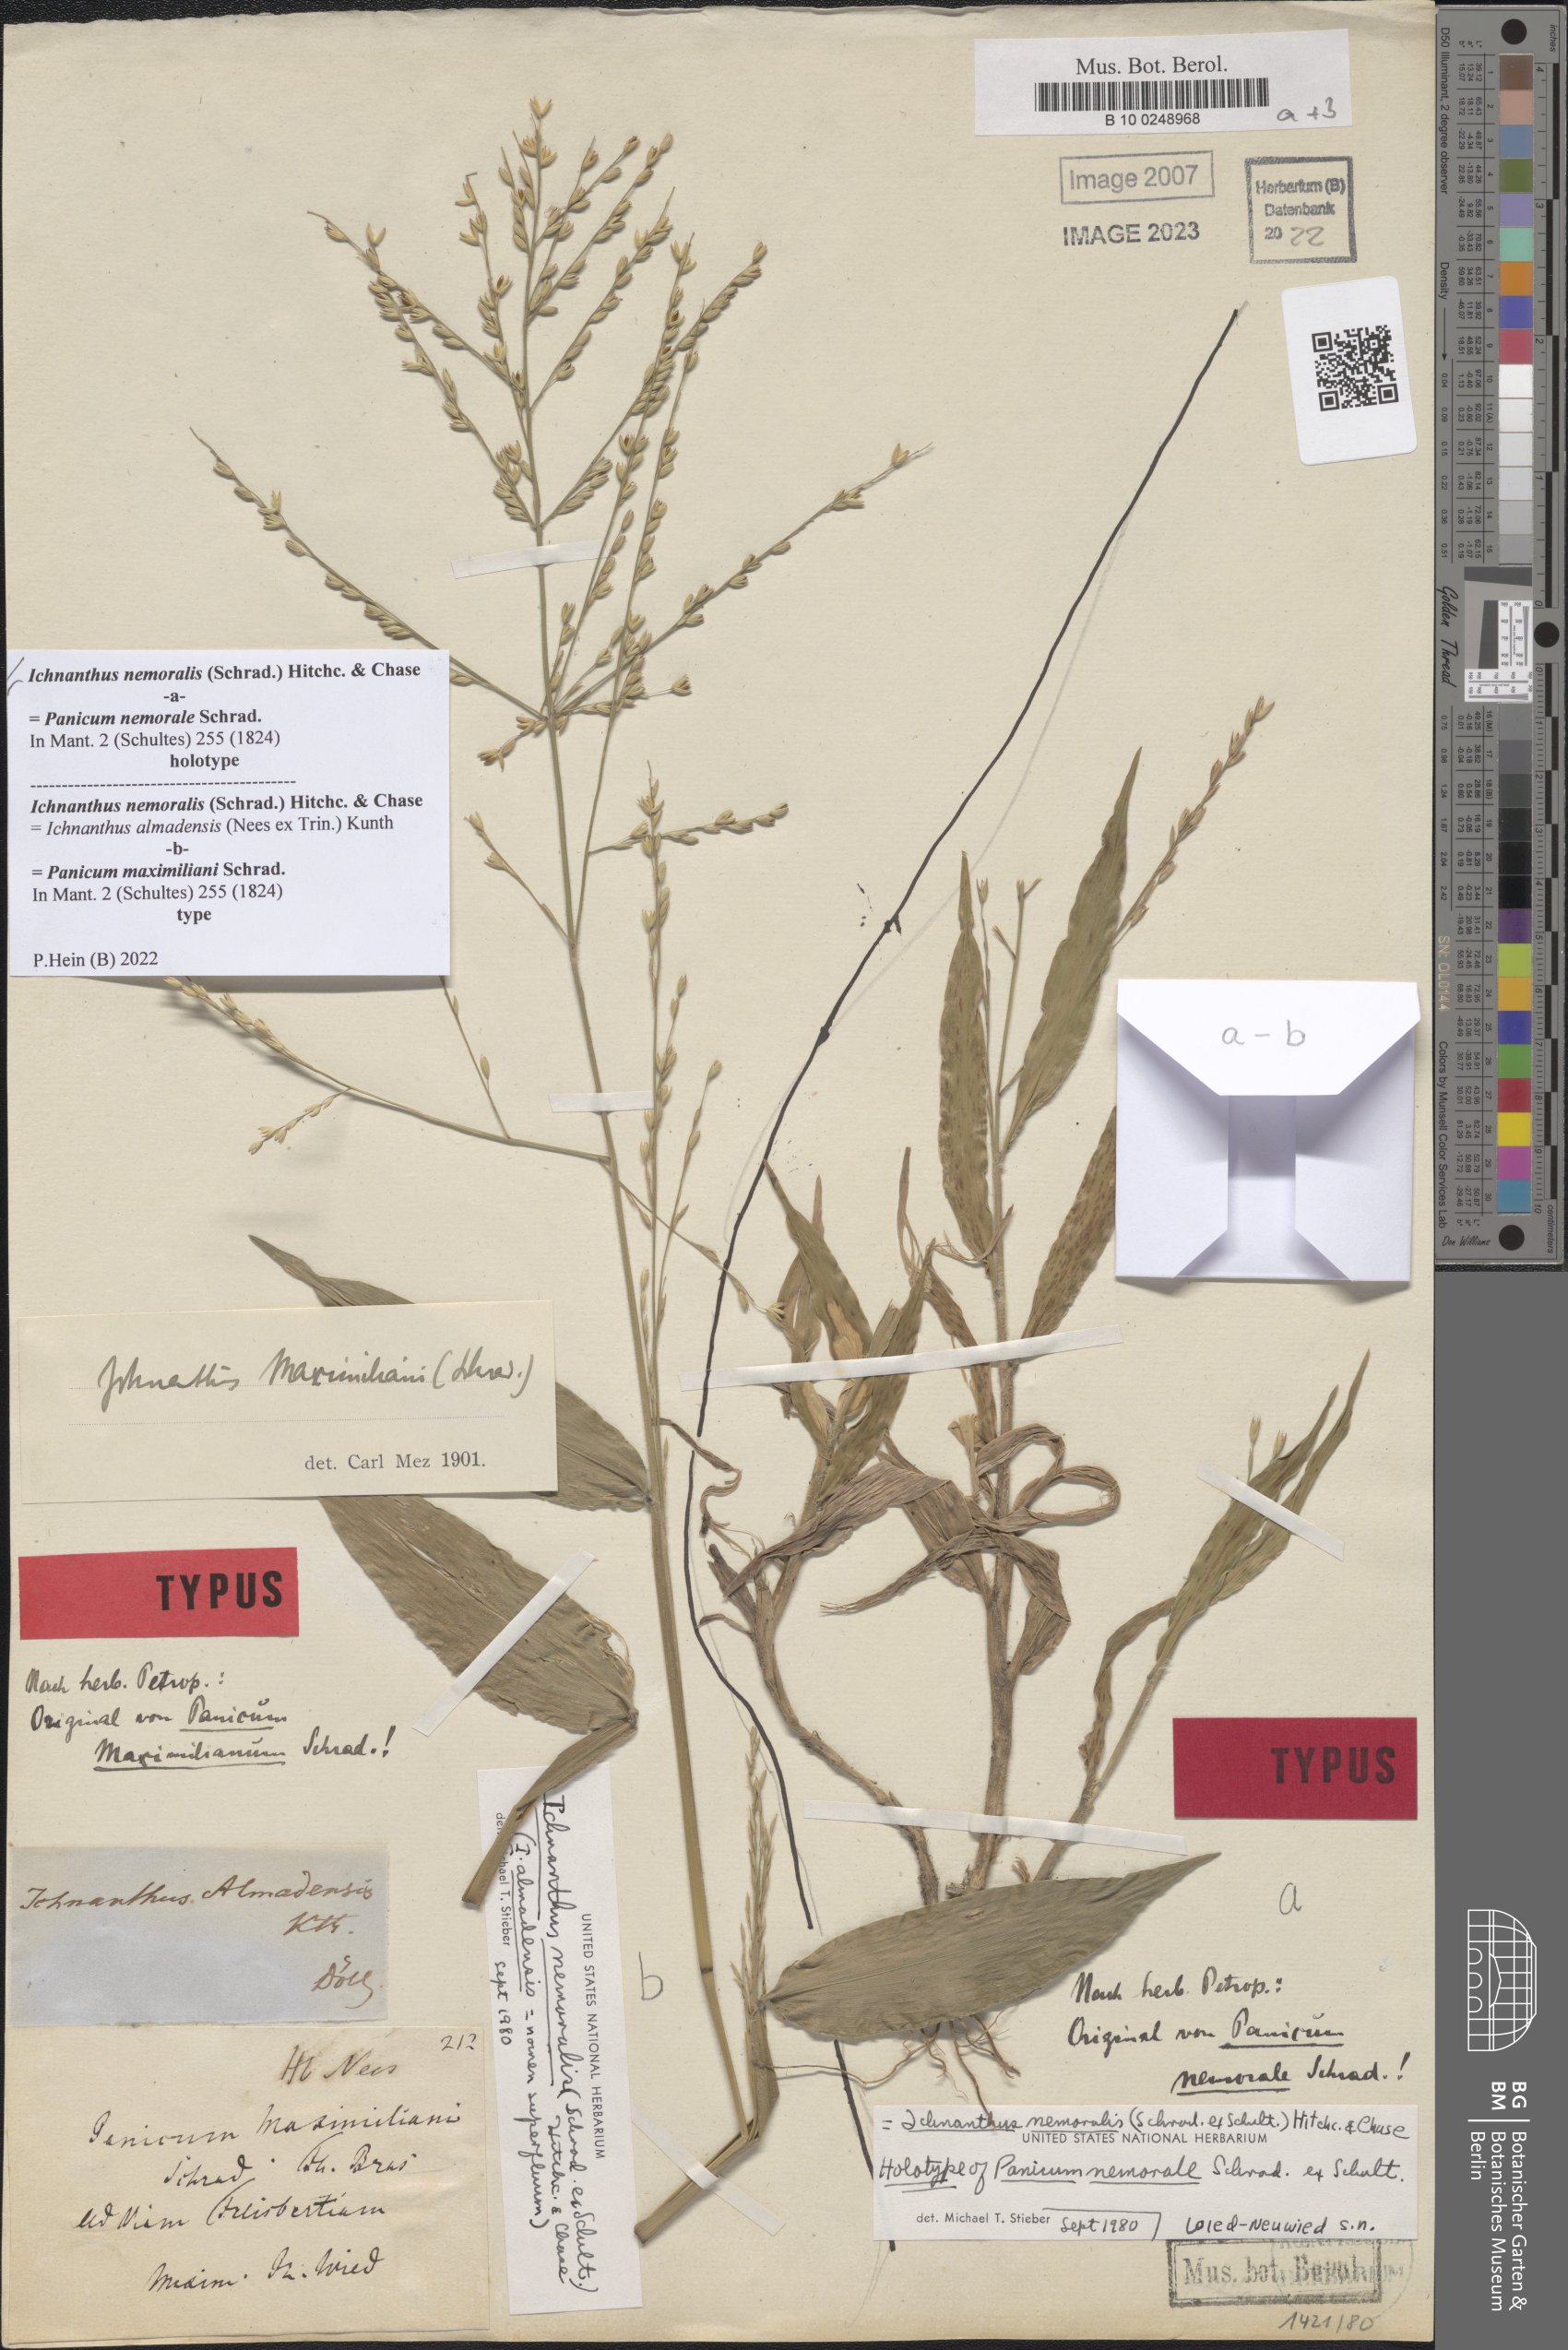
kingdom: Plantae
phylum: Tracheophyta
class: Liliopsida
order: Poales
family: Poaceae
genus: Ichnanthus
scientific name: Ichnanthus nemoralis
